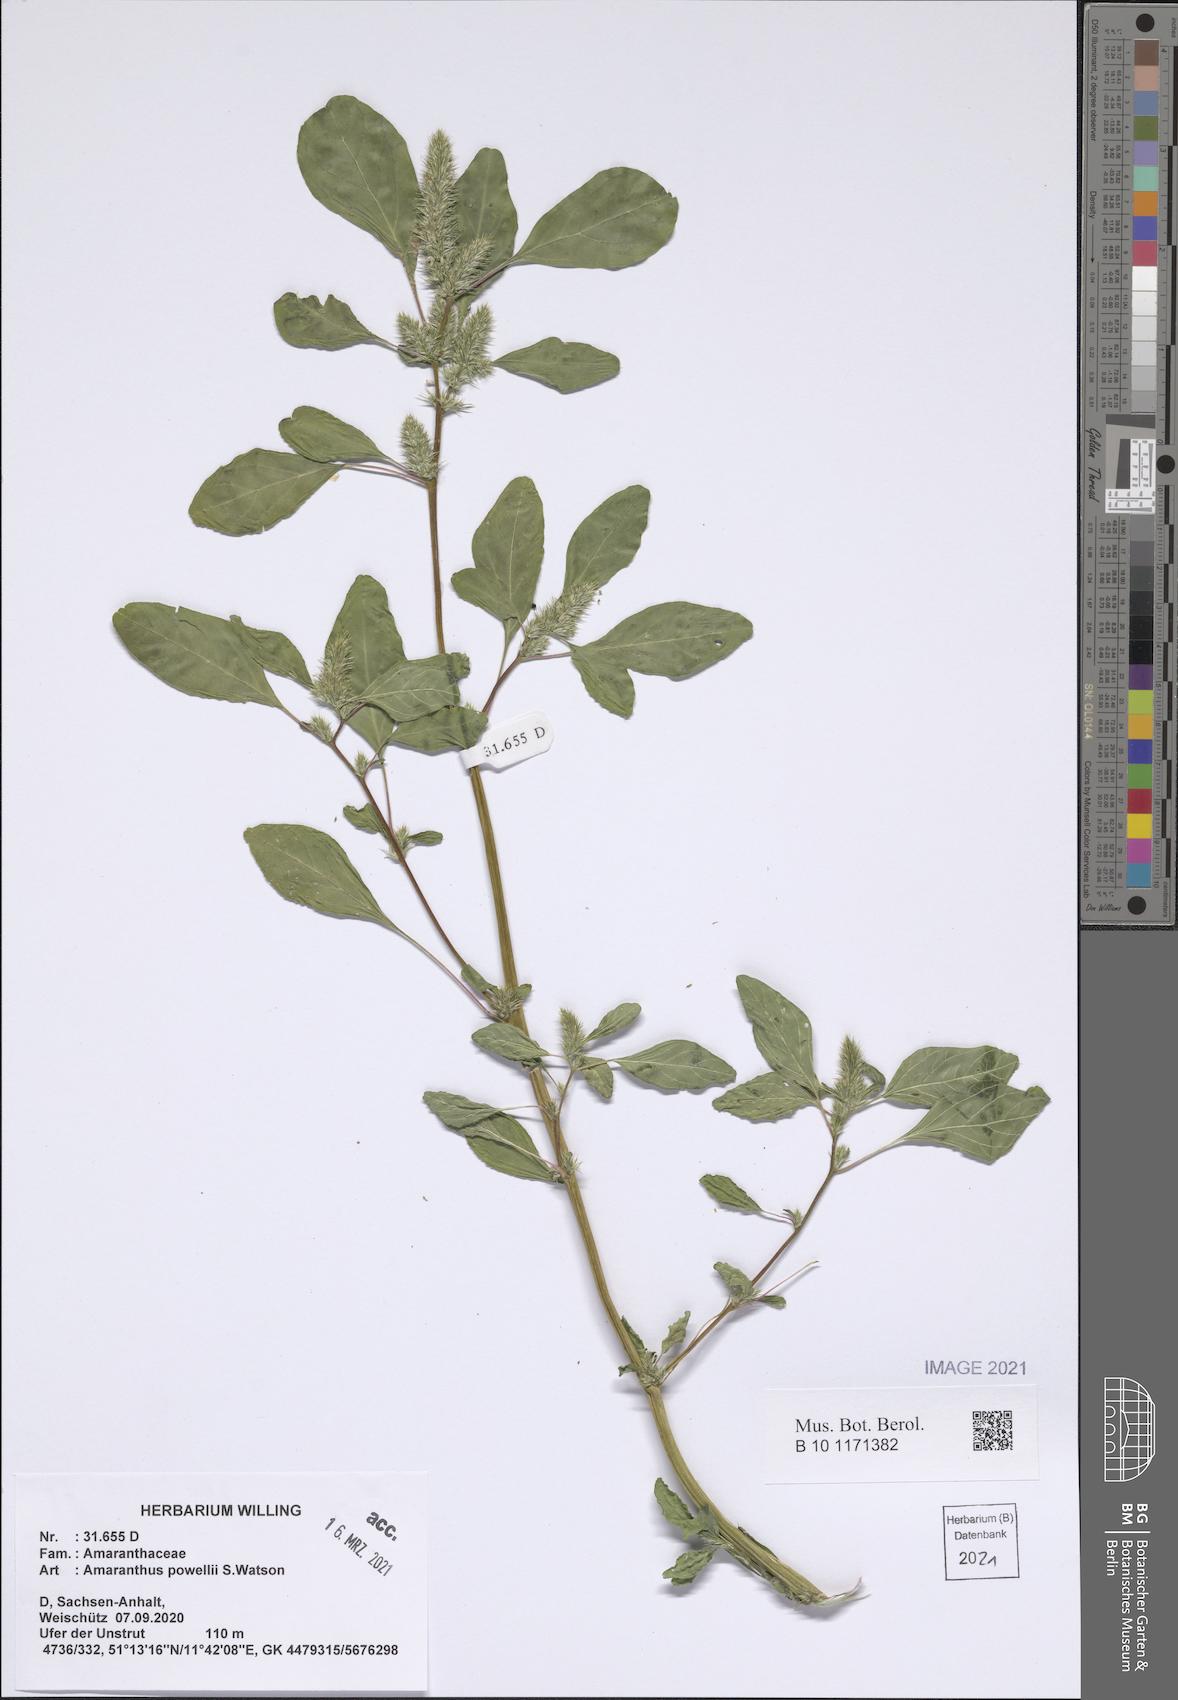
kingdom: Plantae
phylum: Tracheophyta
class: Magnoliopsida
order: Caryophyllales
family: Amaranthaceae
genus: Amaranthus
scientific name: Amaranthus powellii
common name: Powell's amaranth
